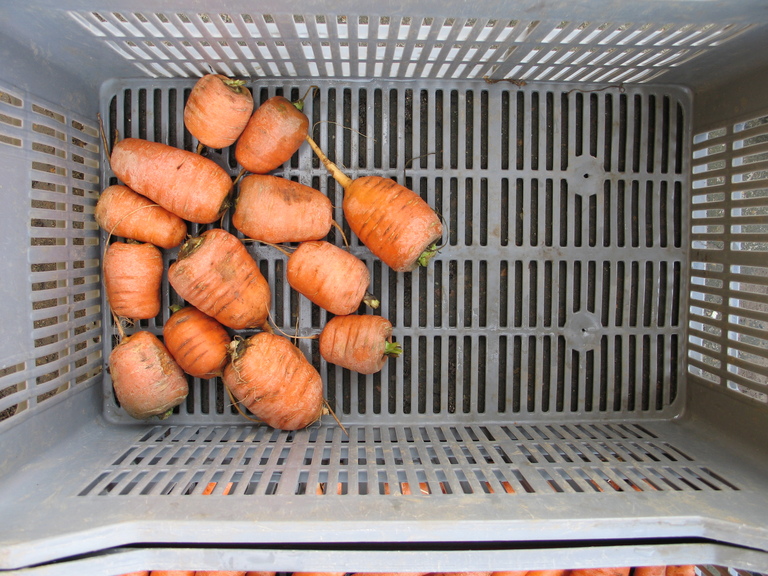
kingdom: Plantae
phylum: Tracheophyta
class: Magnoliopsida
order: Apiales
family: Apiaceae
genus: Daucus
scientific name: Daucus carota
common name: Wild carrot
